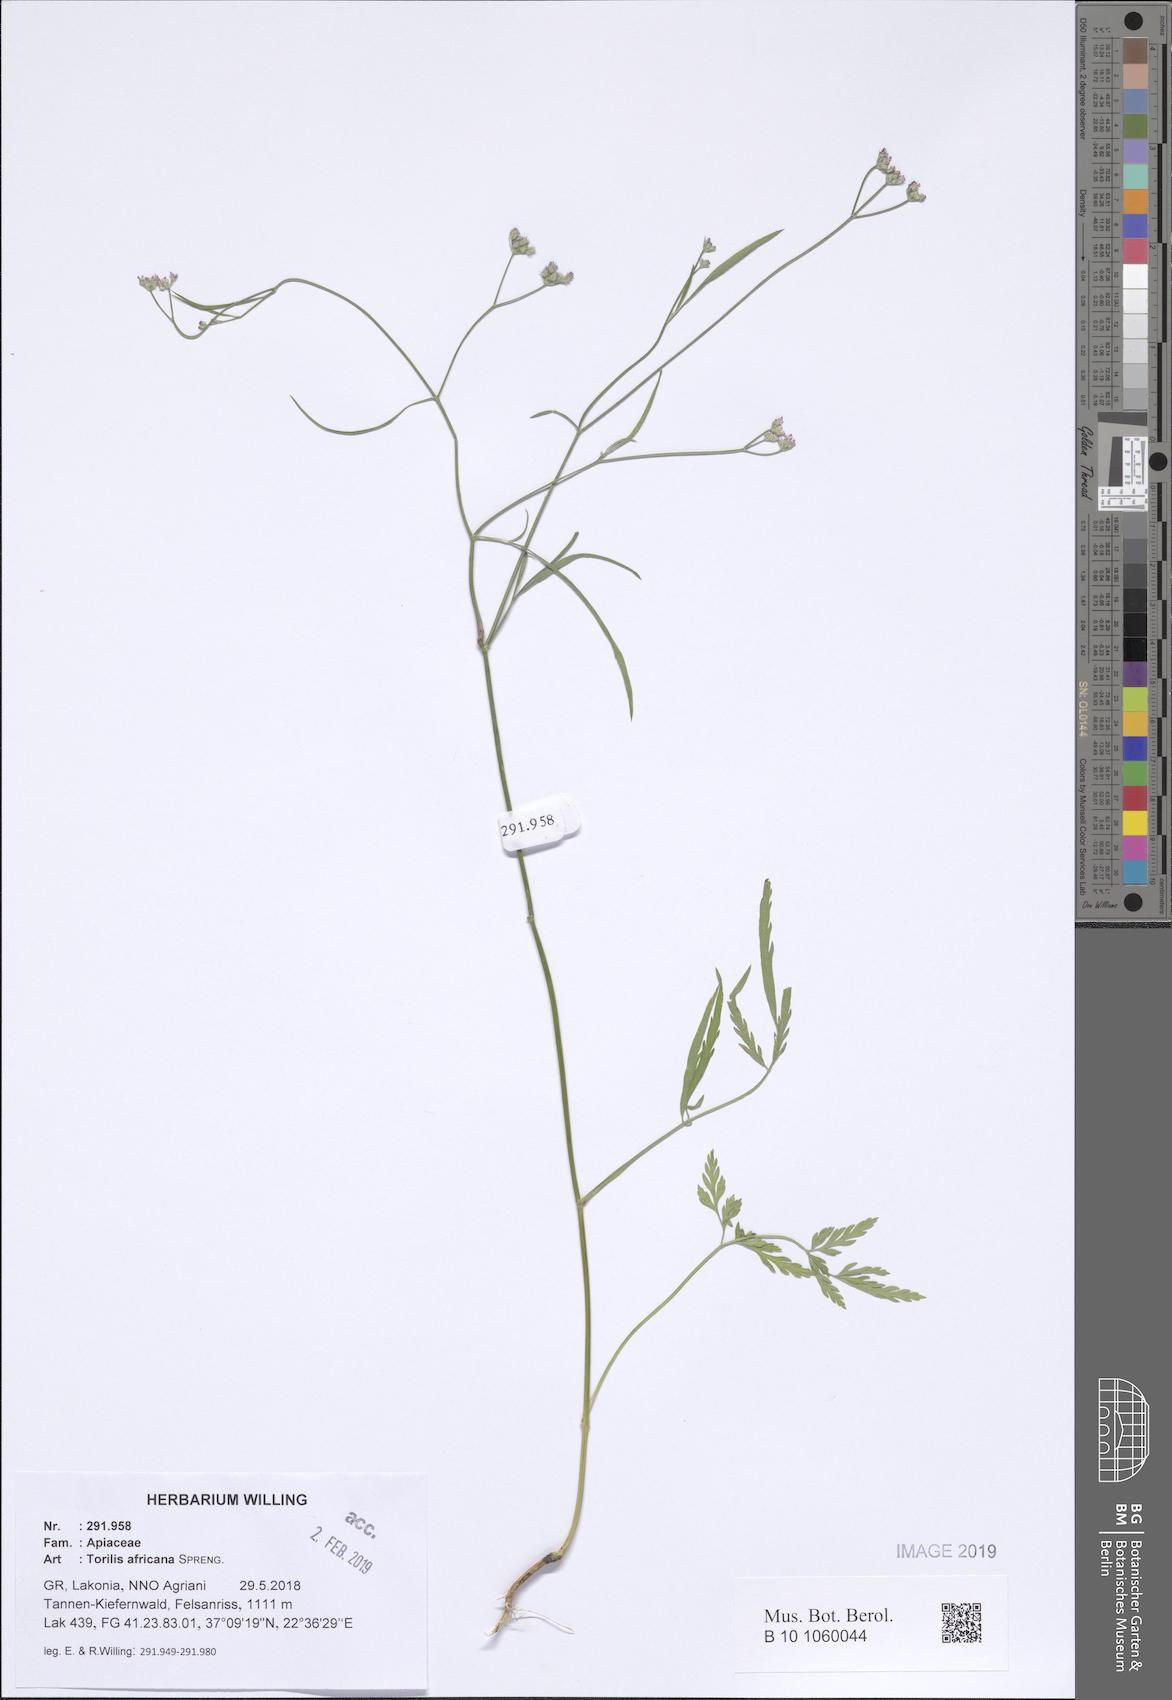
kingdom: Plantae
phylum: Tracheophyta
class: Magnoliopsida
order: Apiales
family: Apiaceae
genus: Torilis
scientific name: Torilis africana
